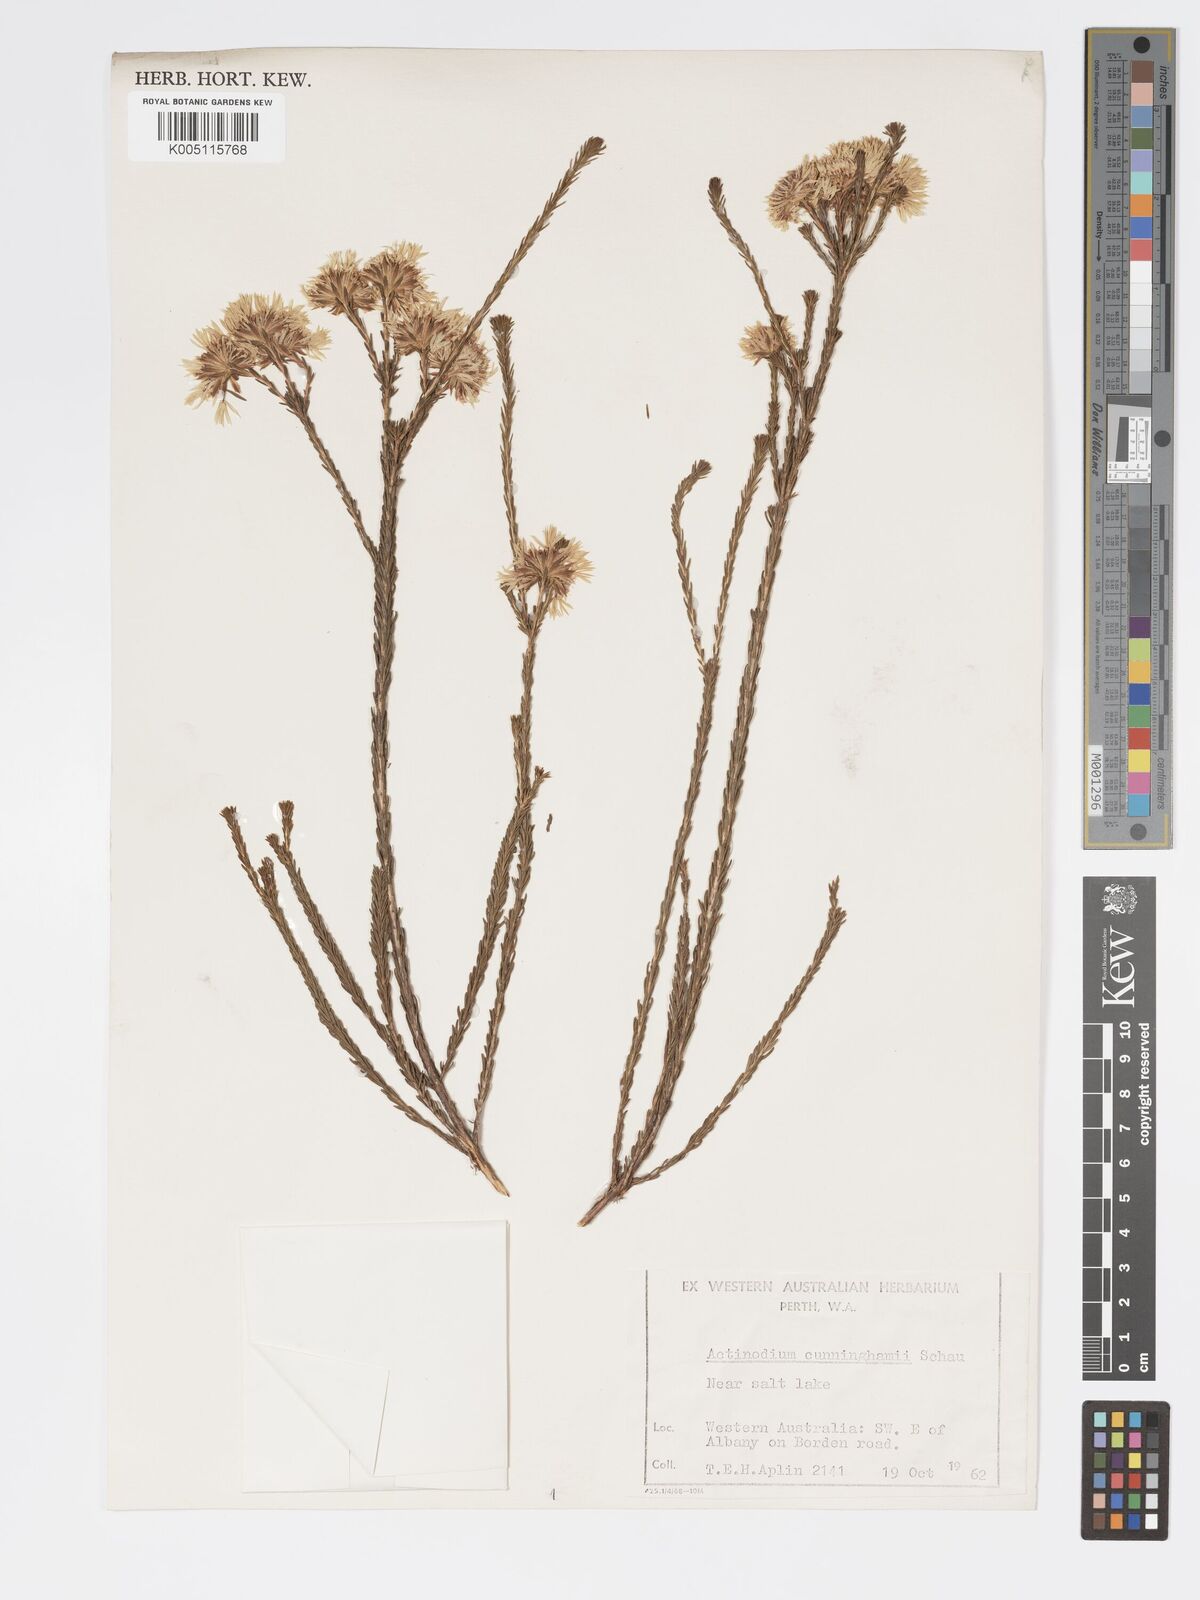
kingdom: Plantae
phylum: Tracheophyta
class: Magnoliopsida
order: Myrtales
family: Myrtaceae
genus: Actinodium
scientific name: Actinodium cunninghamii
